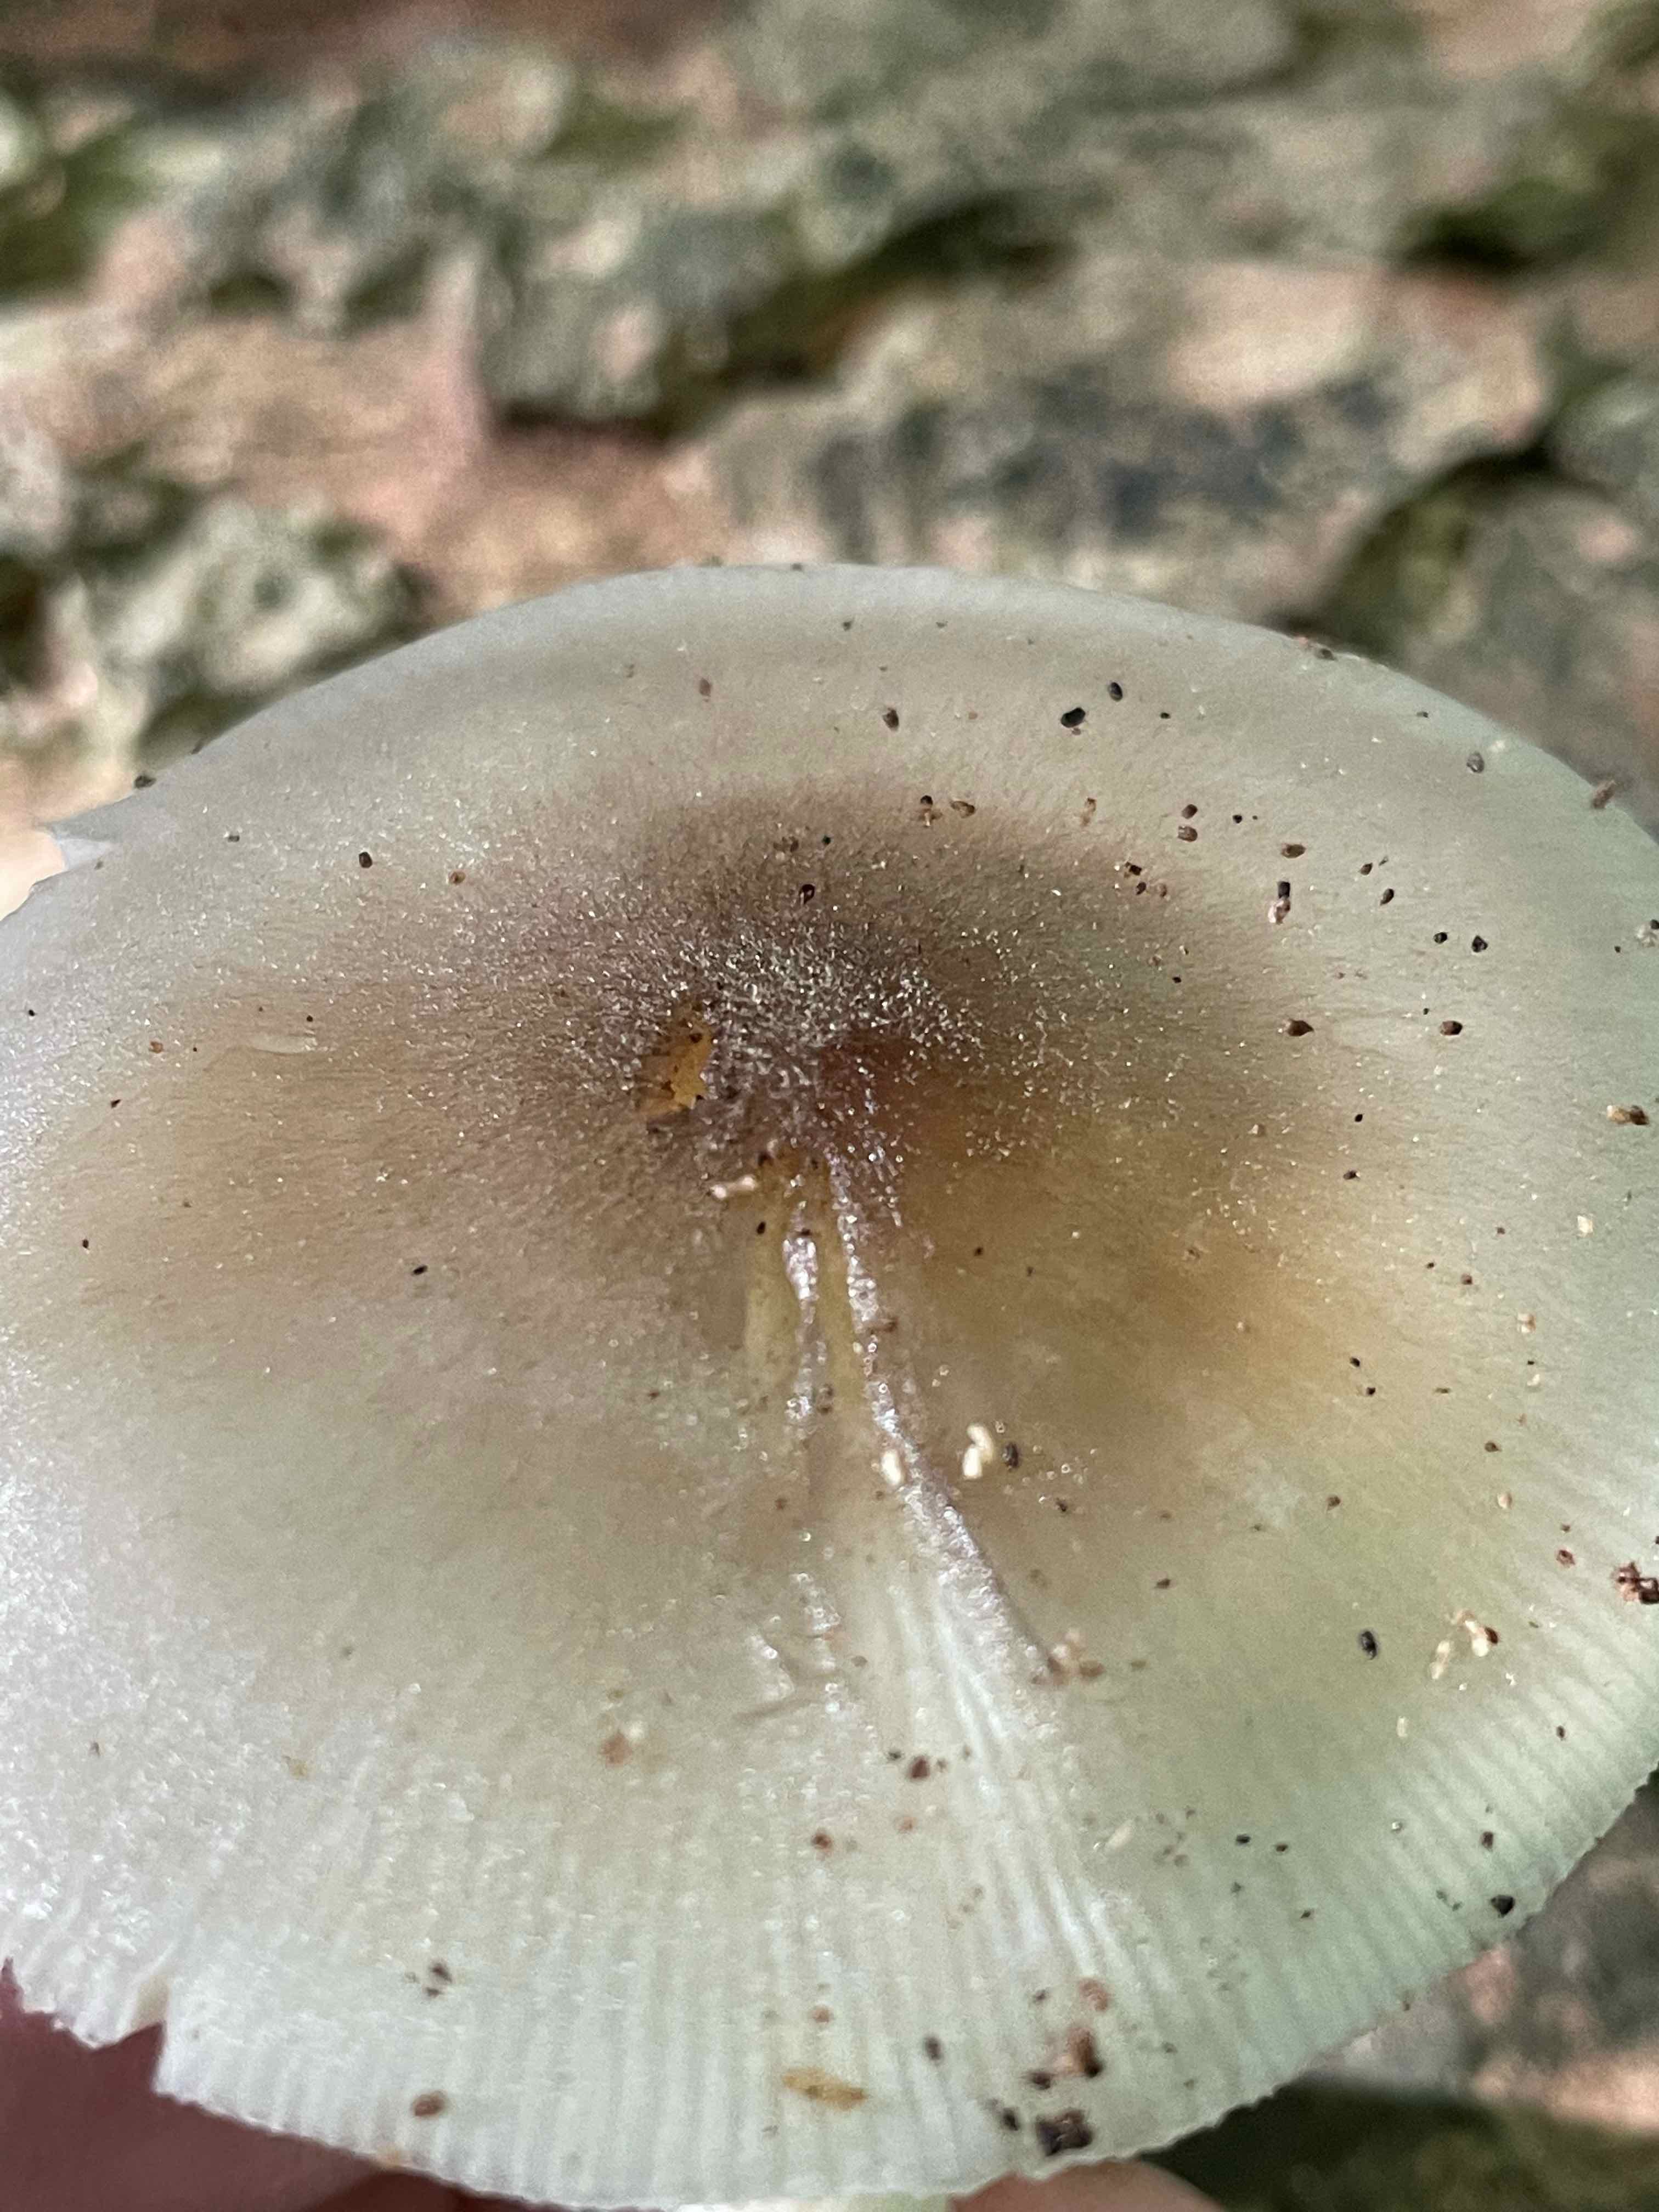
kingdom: Fungi
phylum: Basidiomycota
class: Agaricomycetes
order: Agaricales
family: Pluteaceae
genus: Pluteus
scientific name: Pluteus salicinus
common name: stiv skærmhat
